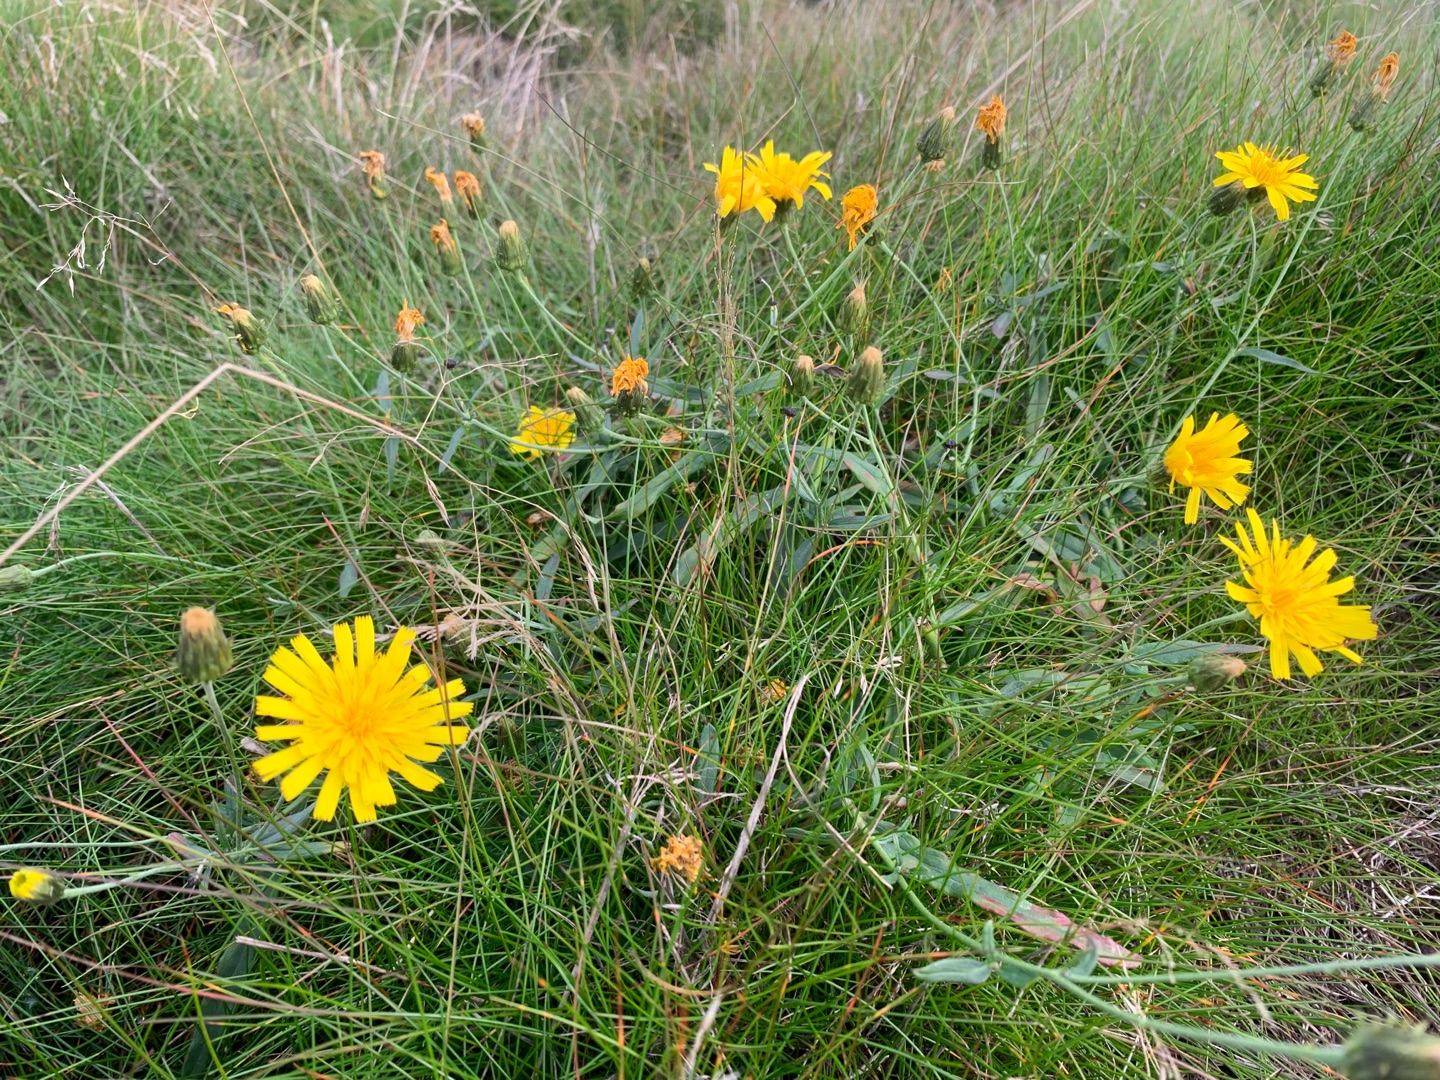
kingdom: Plantae
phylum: Tracheophyta
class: Magnoliopsida
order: Asterales
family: Asteraceae
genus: Hieracium
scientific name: Hieracium umbellatum
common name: Smalbladet høgeurt
